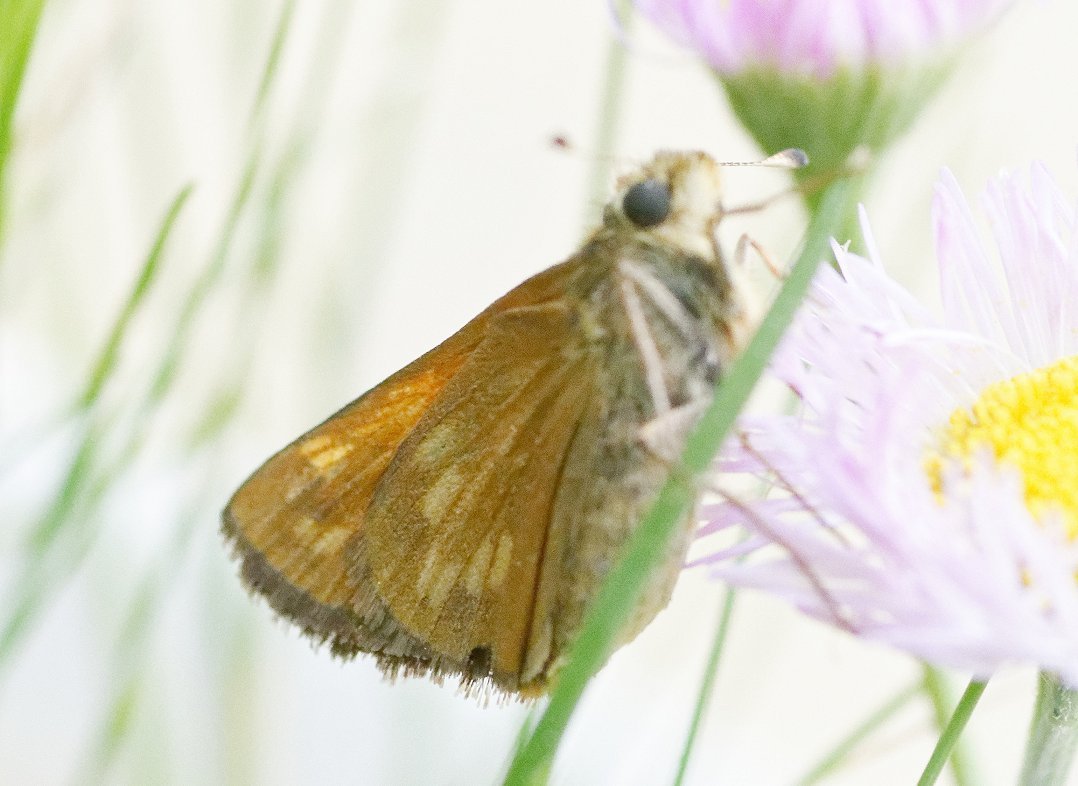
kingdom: Animalia
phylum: Arthropoda
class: Insecta
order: Lepidoptera
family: Hesperiidae
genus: Hesperia
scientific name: Hesperia sassacus
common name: Sassacus Skipper
